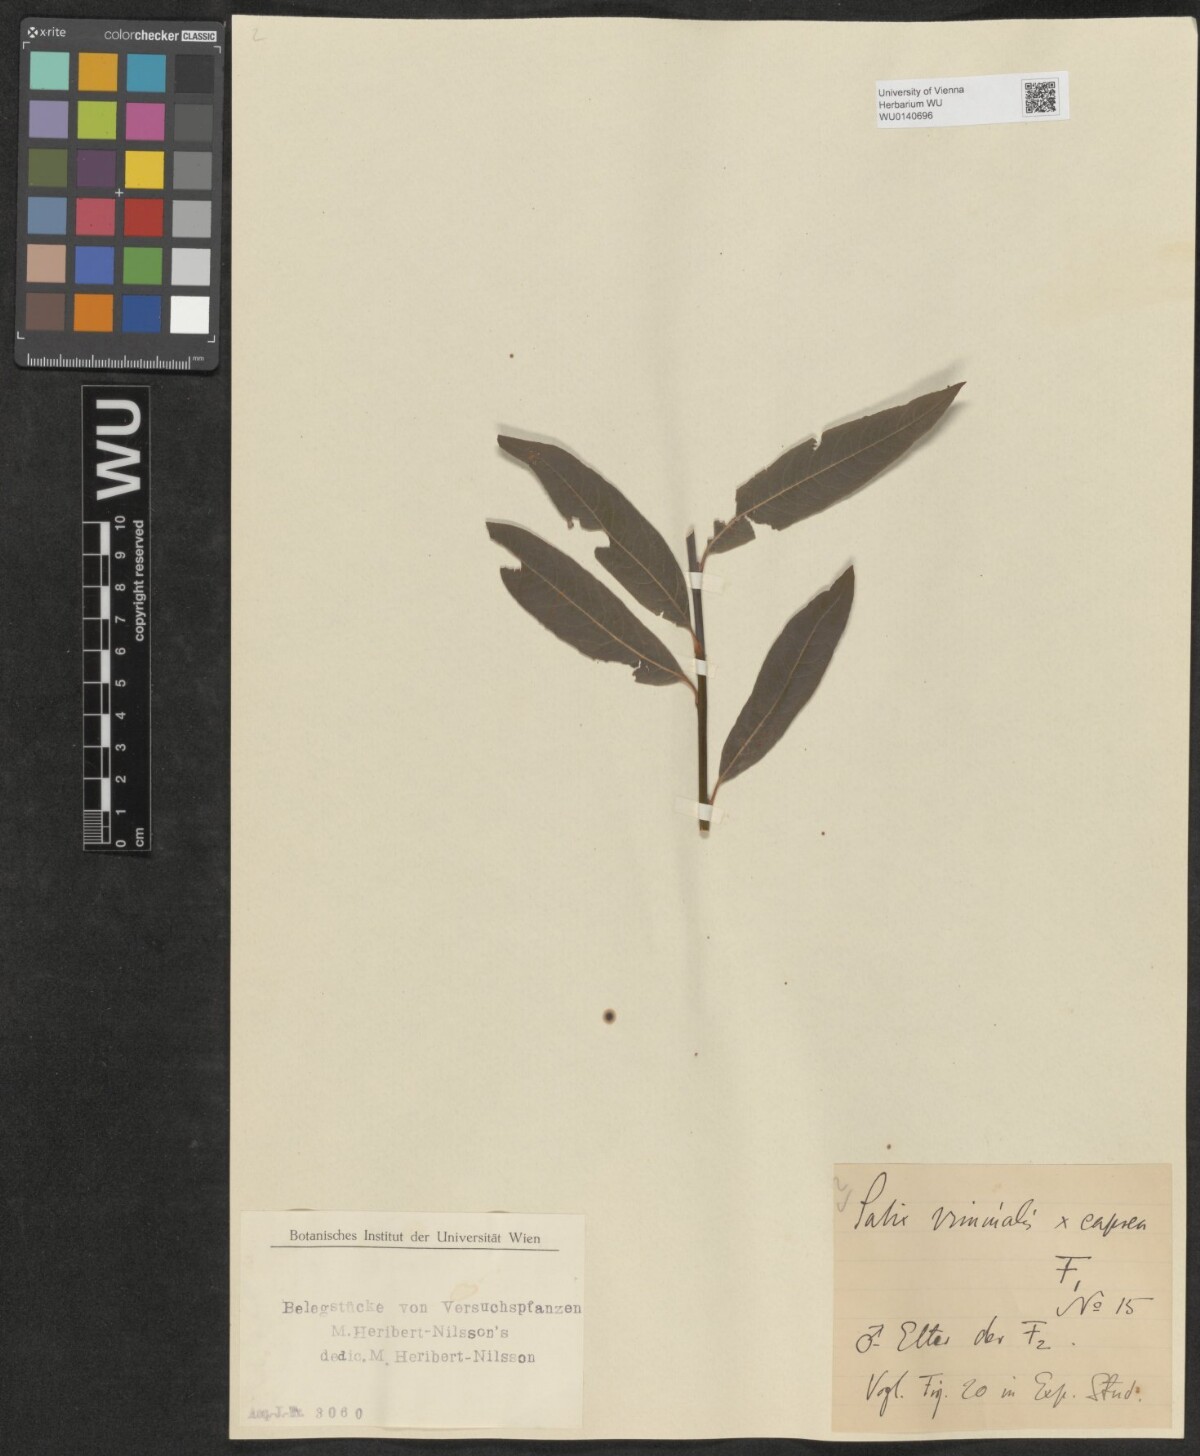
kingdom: Plantae
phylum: Tracheophyta
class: Magnoliopsida
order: Malpighiales
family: Salicaceae
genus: Salix
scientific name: Salix
